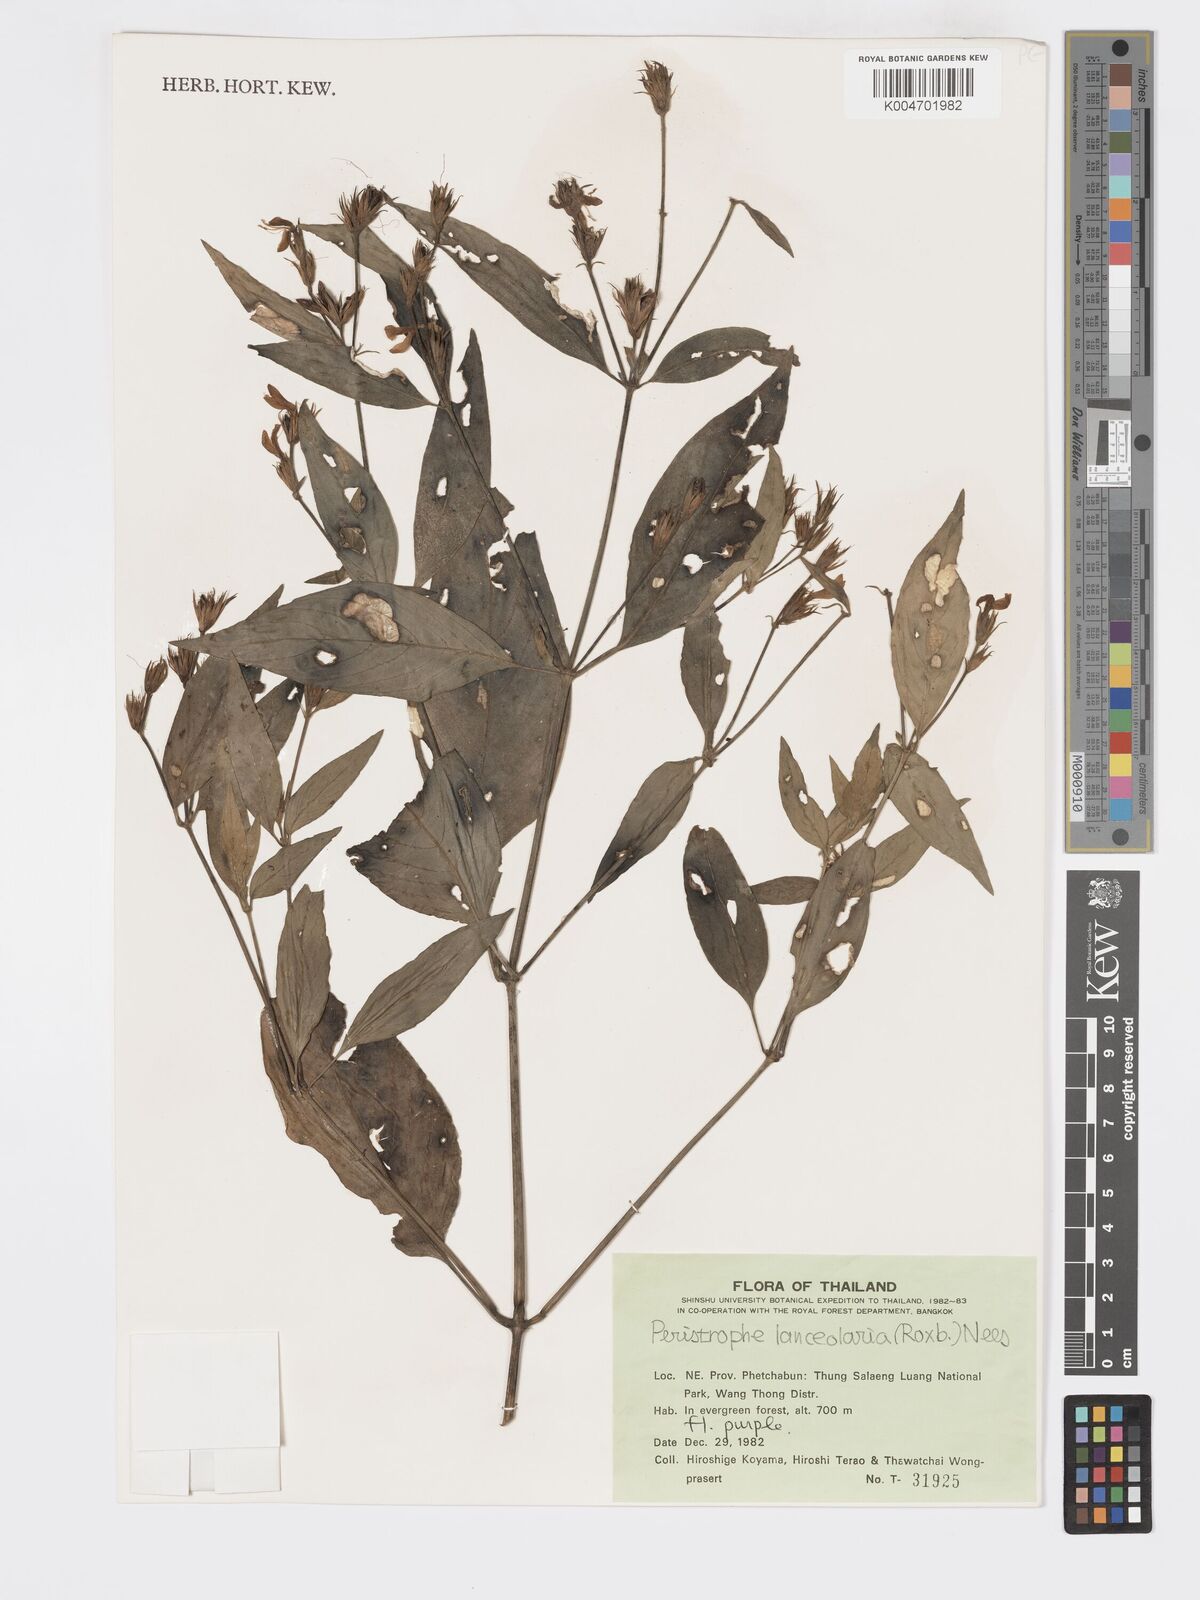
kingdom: Plantae
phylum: Tracheophyta
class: Magnoliopsida
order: Lamiales
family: Acanthaceae
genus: Dicliptera
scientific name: Dicliptera lanceolaria
